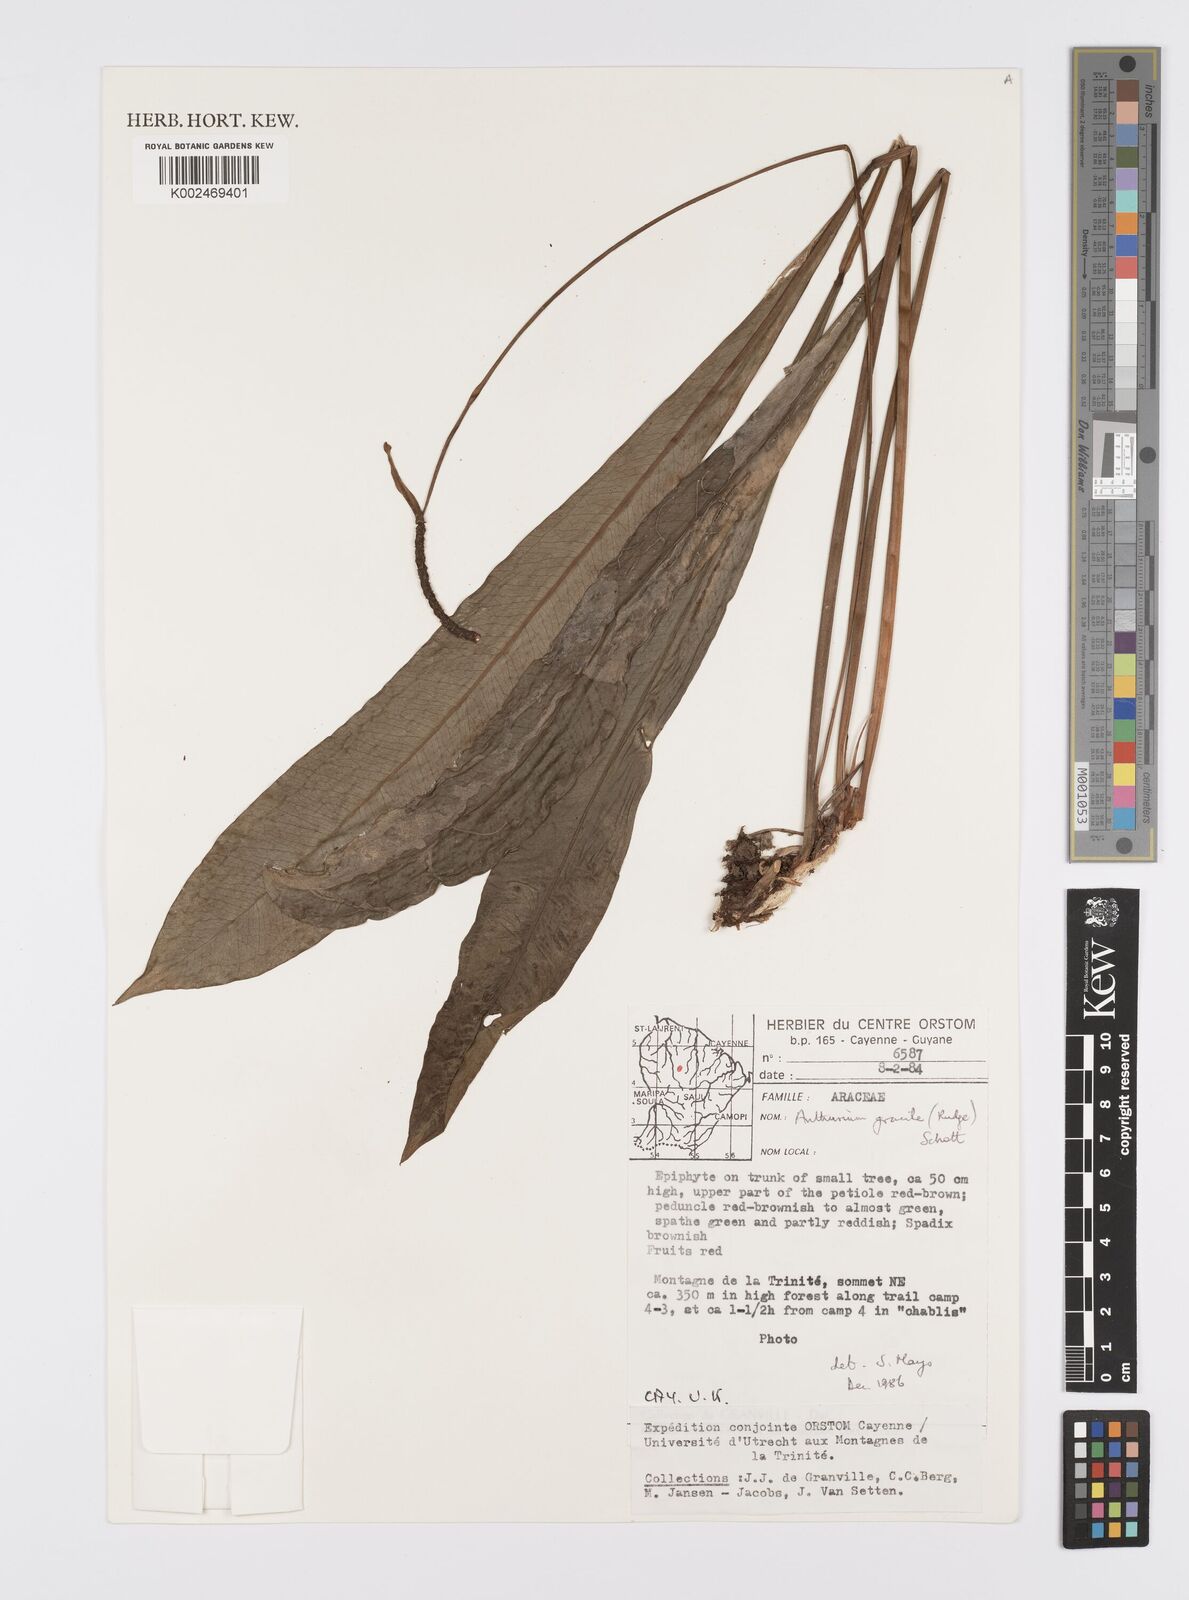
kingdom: Plantae
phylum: Tracheophyta
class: Liliopsida
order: Alismatales
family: Araceae
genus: Anthurium
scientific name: Anthurium gracile
